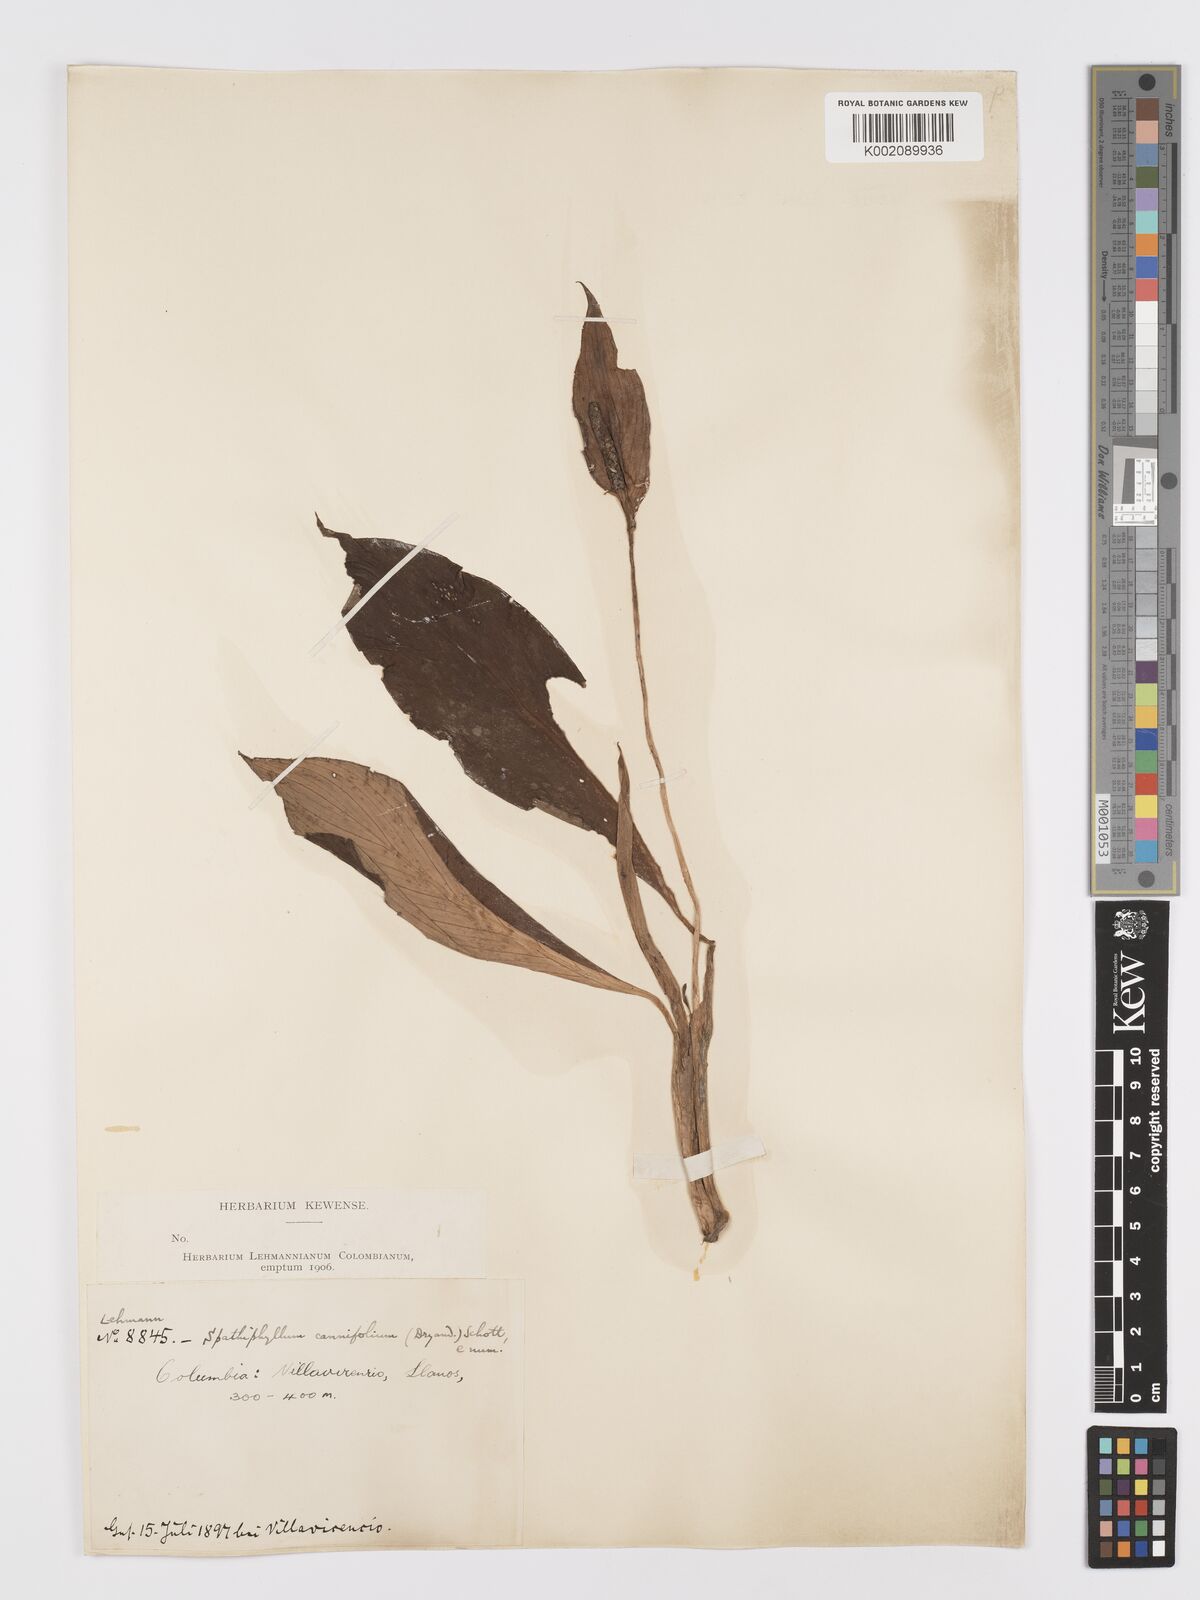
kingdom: Plantae
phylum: Tracheophyta
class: Liliopsida
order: Alismatales
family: Araceae
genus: Spathiphyllum
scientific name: Spathiphyllum cannifolium
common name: Spatheflower
